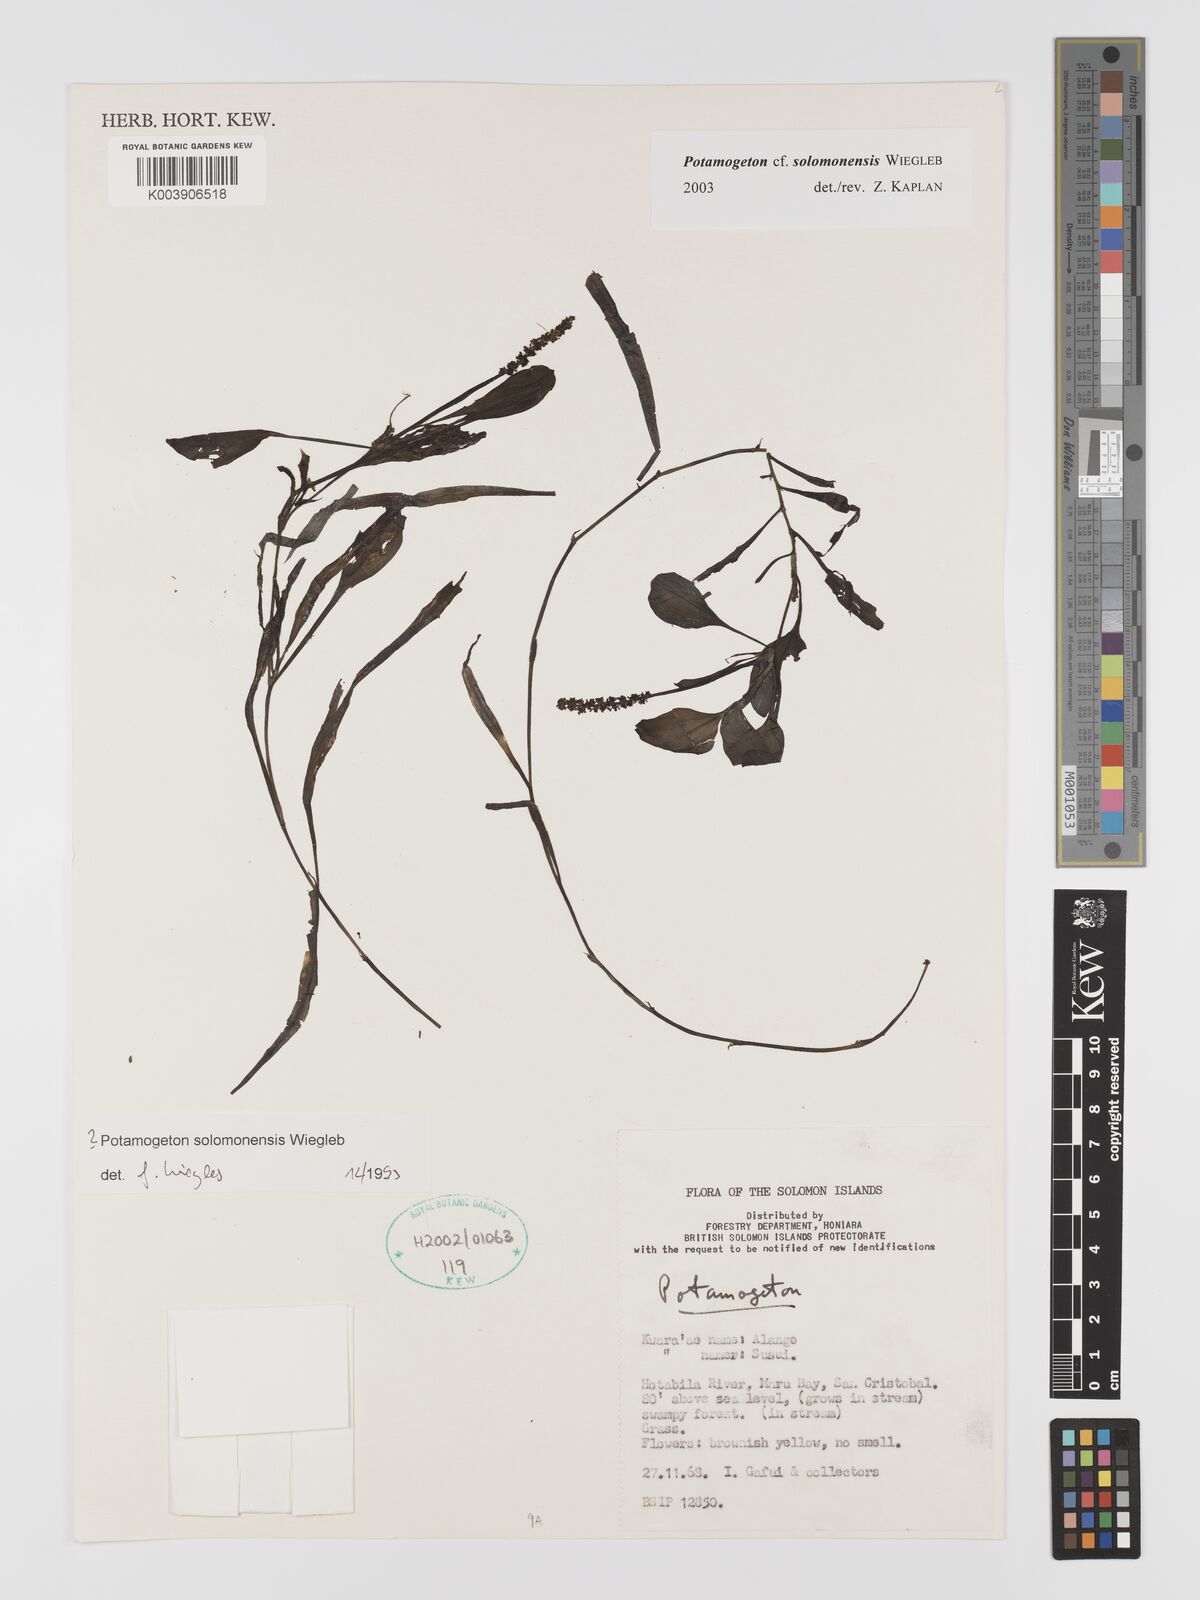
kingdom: Plantae
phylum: Tracheophyta
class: Liliopsida
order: Alismatales
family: Potamogetonaceae
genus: Potamogeton
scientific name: Potamogeton solomonensis
